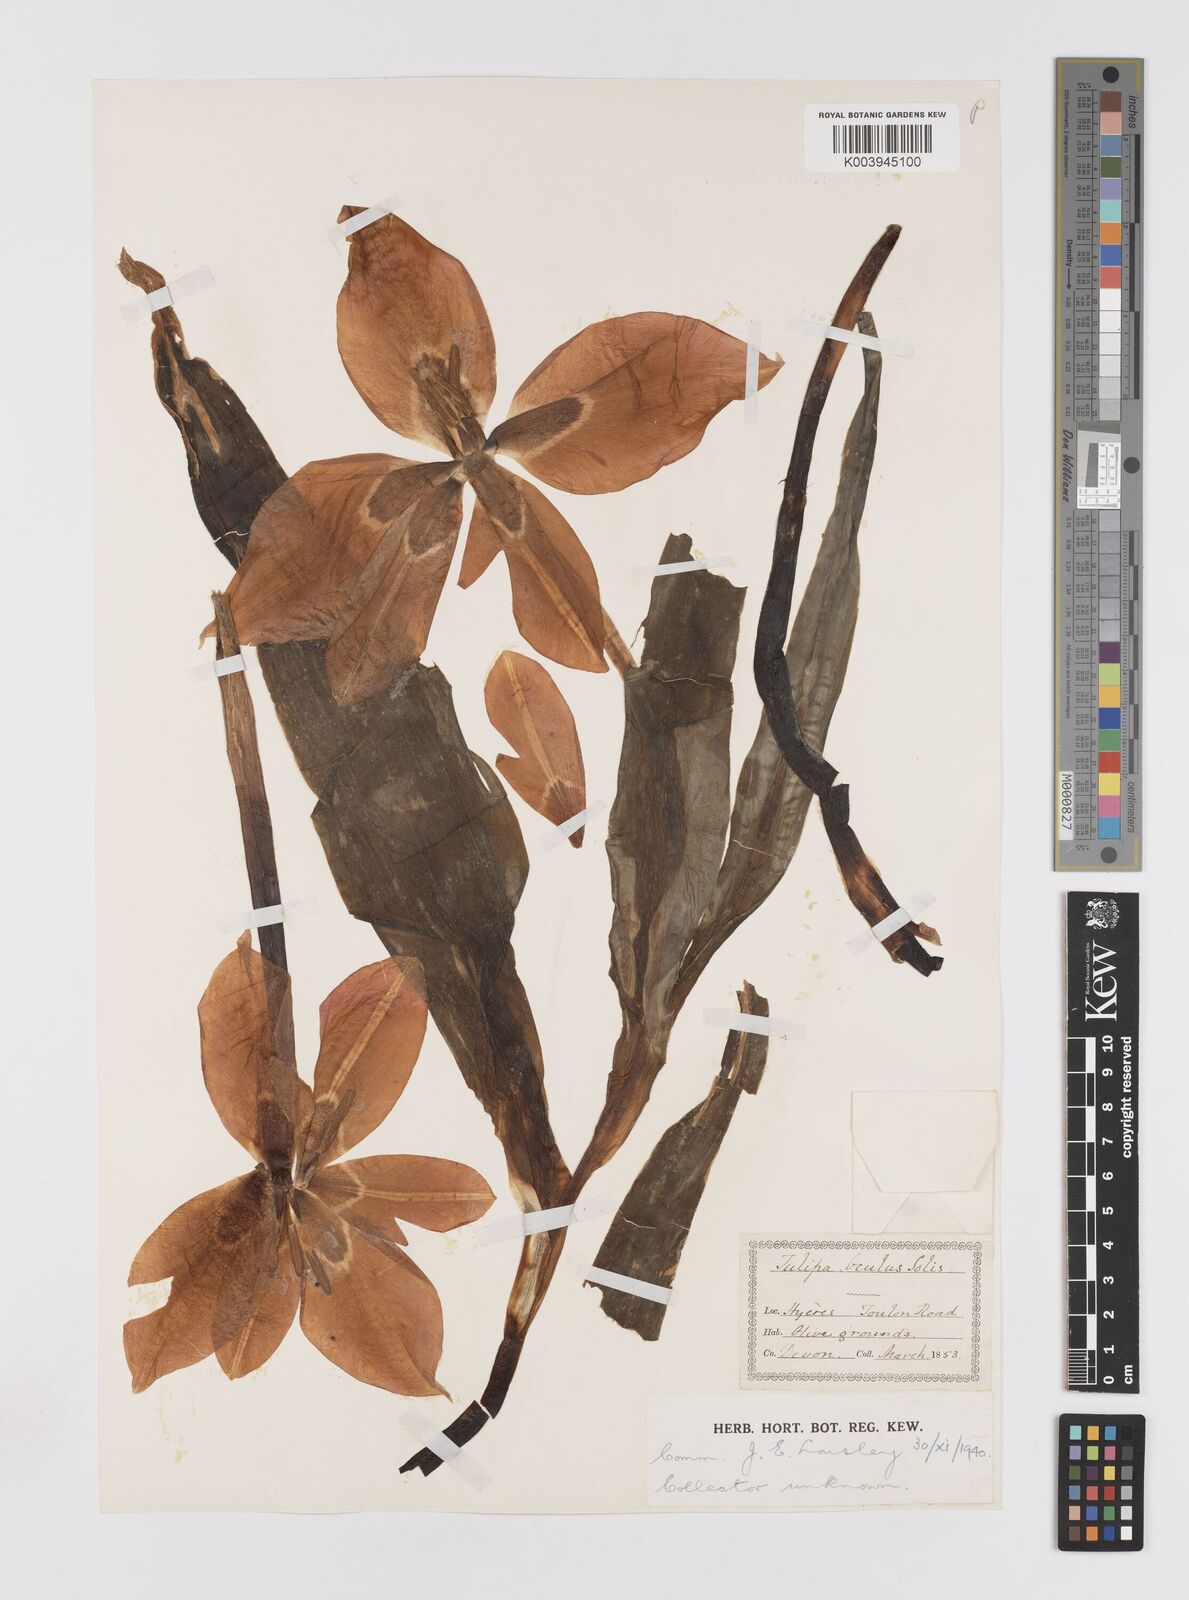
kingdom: Plantae
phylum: Tracheophyta
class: Liliopsida
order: Liliales
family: Liliaceae
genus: Tulipa
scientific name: Tulipa
